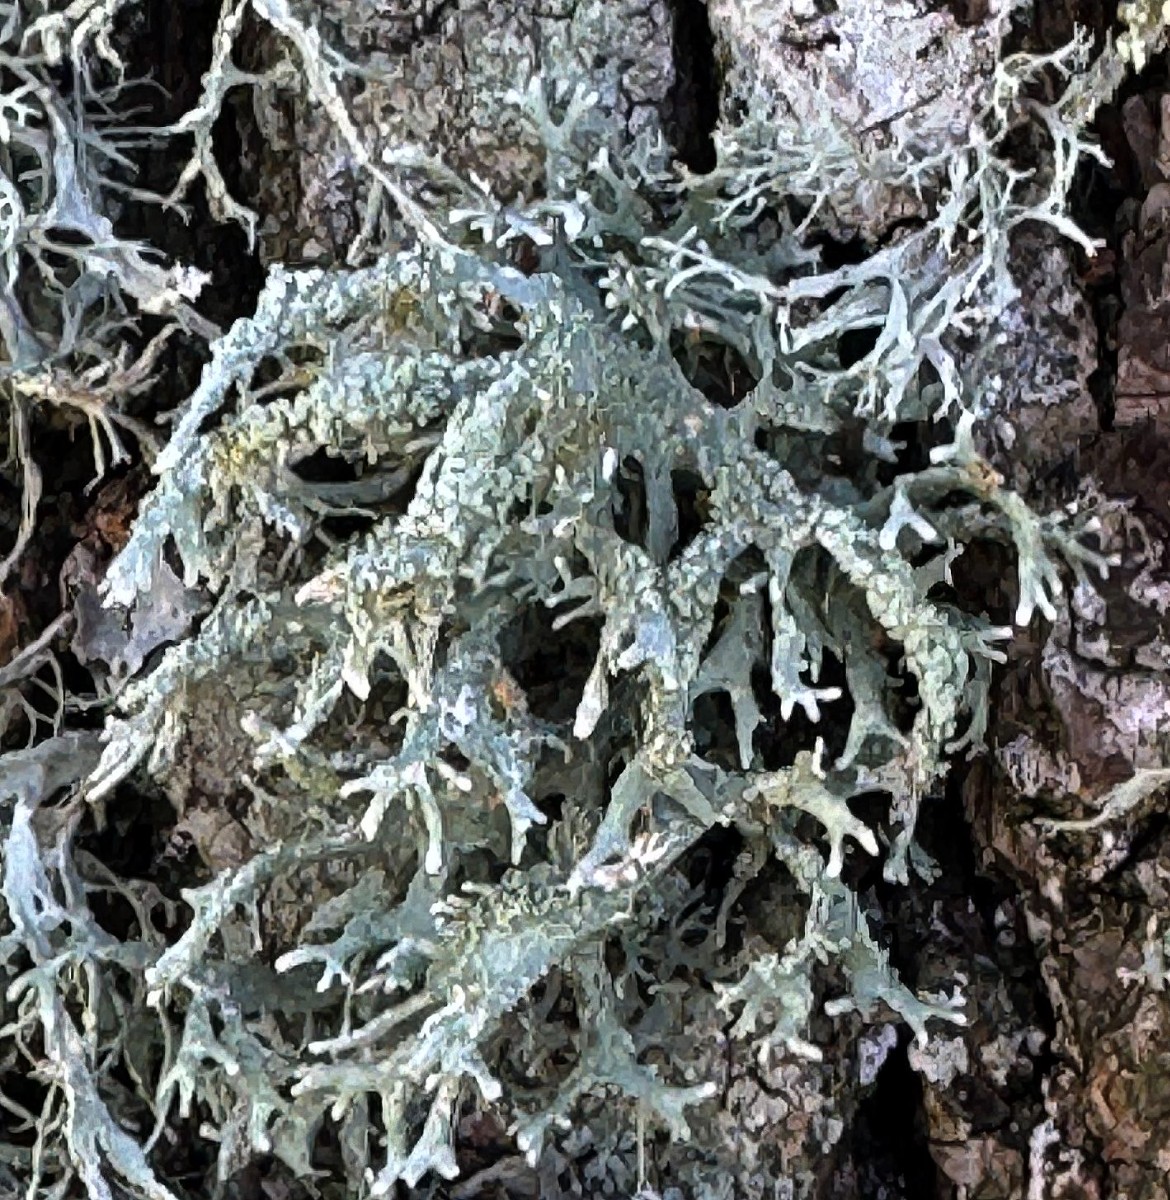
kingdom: Fungi
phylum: Ascomycota
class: Lecanoromycetes
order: Lecanorales
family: Parmeliaceae
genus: Evernia
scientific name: Evernia prunastri
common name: almindelig slåenlav
